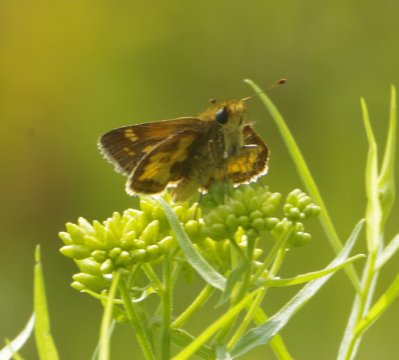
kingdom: Animalia
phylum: Arthropoda
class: Insecta
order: Lepidoptera
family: Hesperiidae
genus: Polites
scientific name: Polites coras
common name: Peck's Skipper
